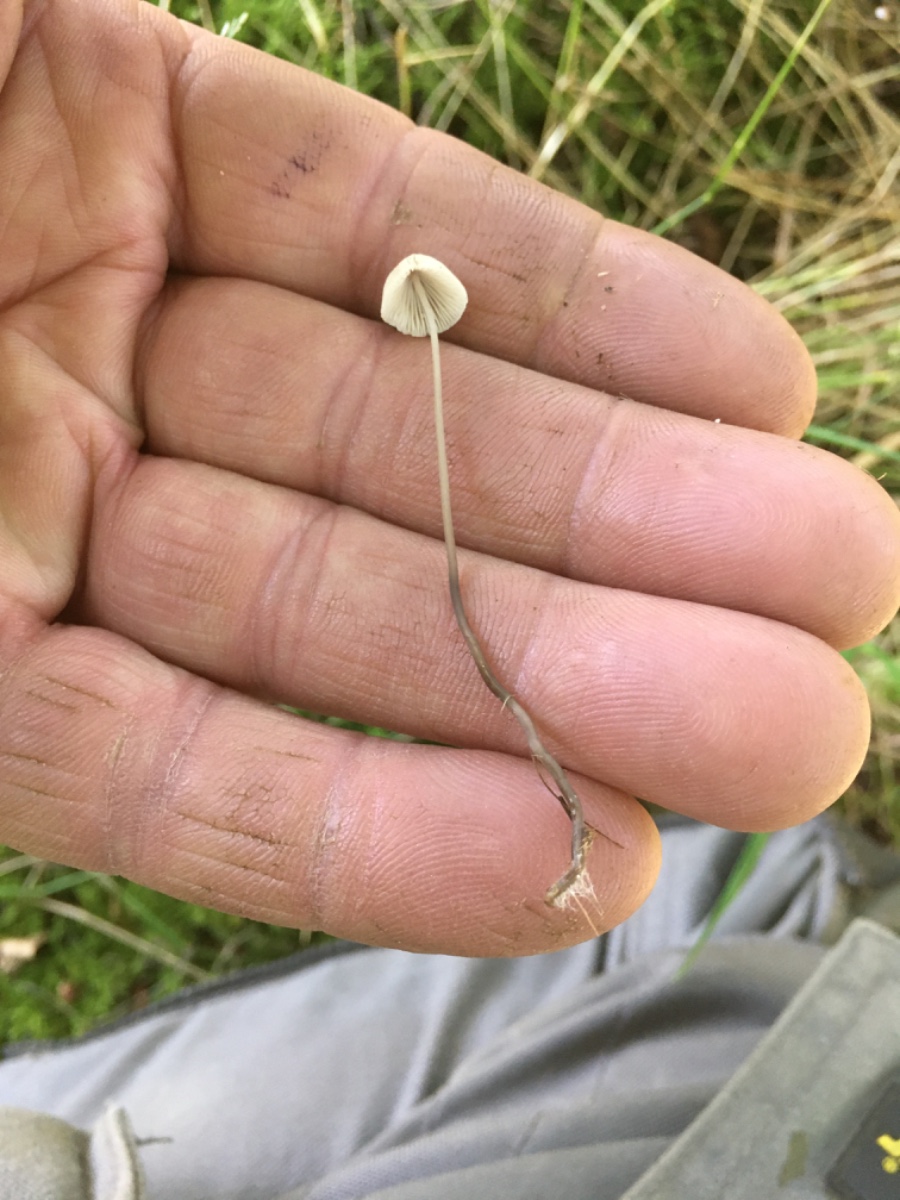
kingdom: Fungi
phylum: Basidiomycota
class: Agaricomycetes
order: Agaricales
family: Mycenaceae
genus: Mycena
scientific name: Mycena
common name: huesvamp
